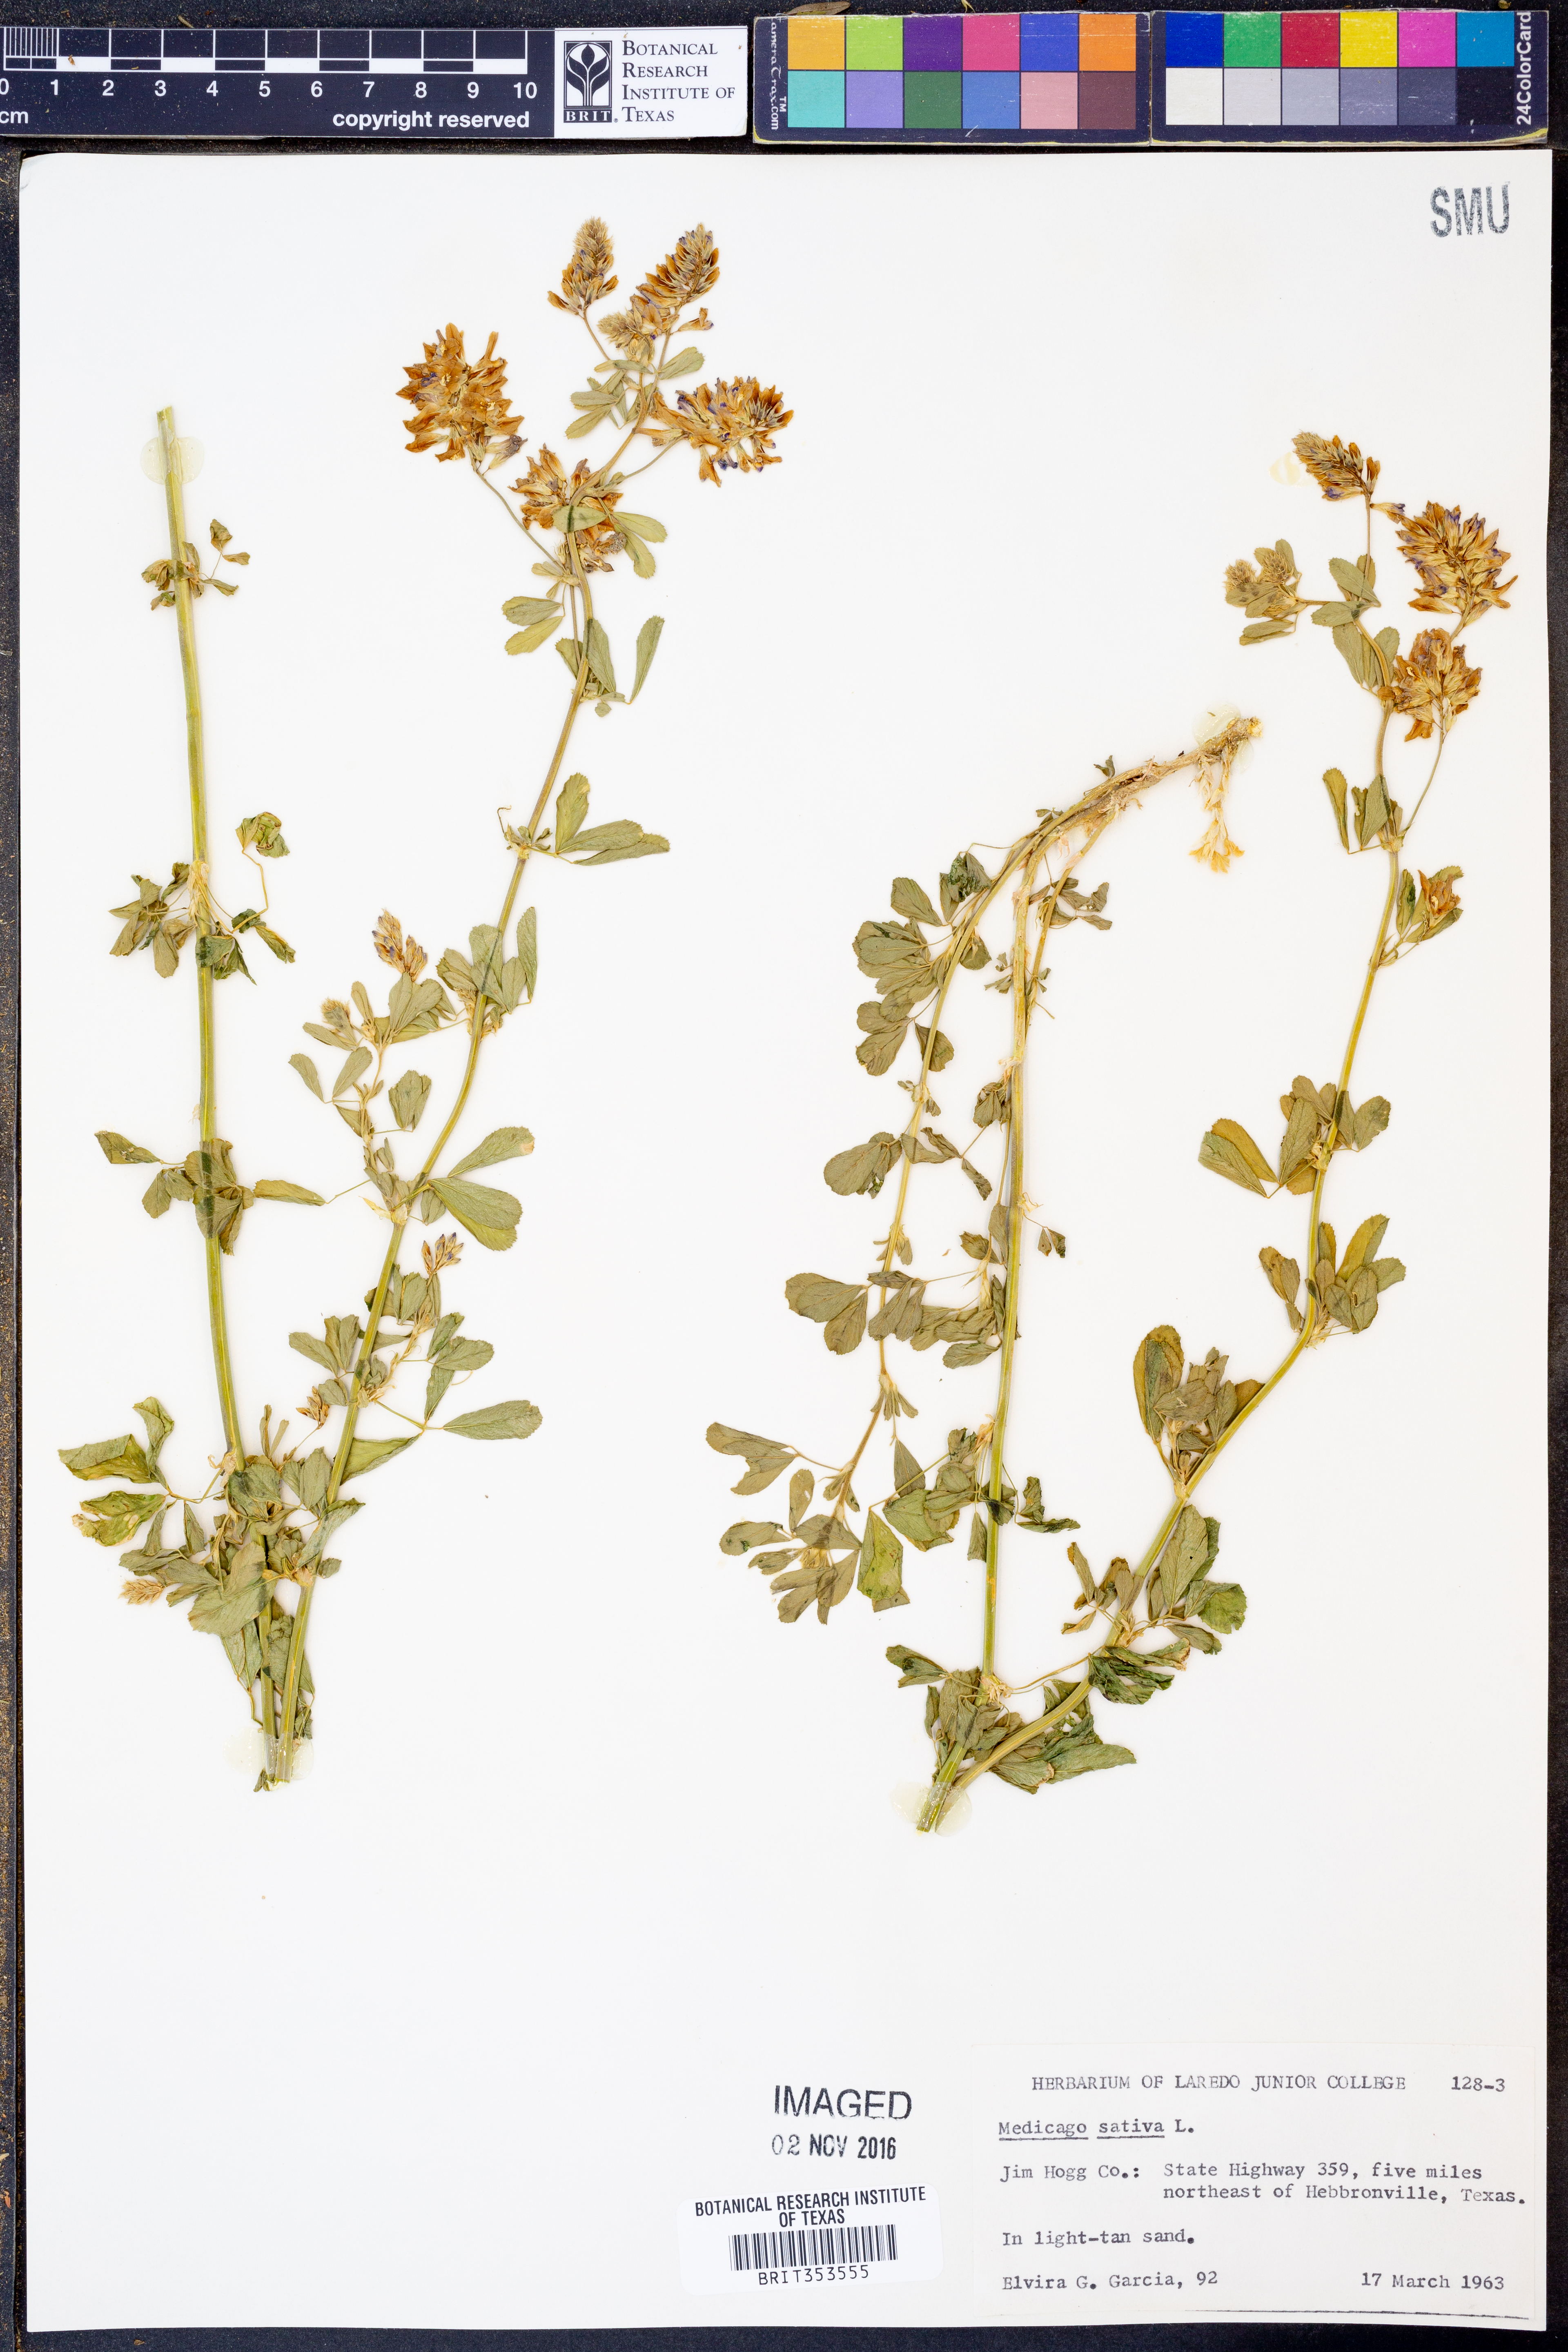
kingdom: Plantae
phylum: Tracheophyta
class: Magnoliopsida
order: Fabales
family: Fabaceae
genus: Medicago
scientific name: Medicago sativa
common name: Alfalfa
